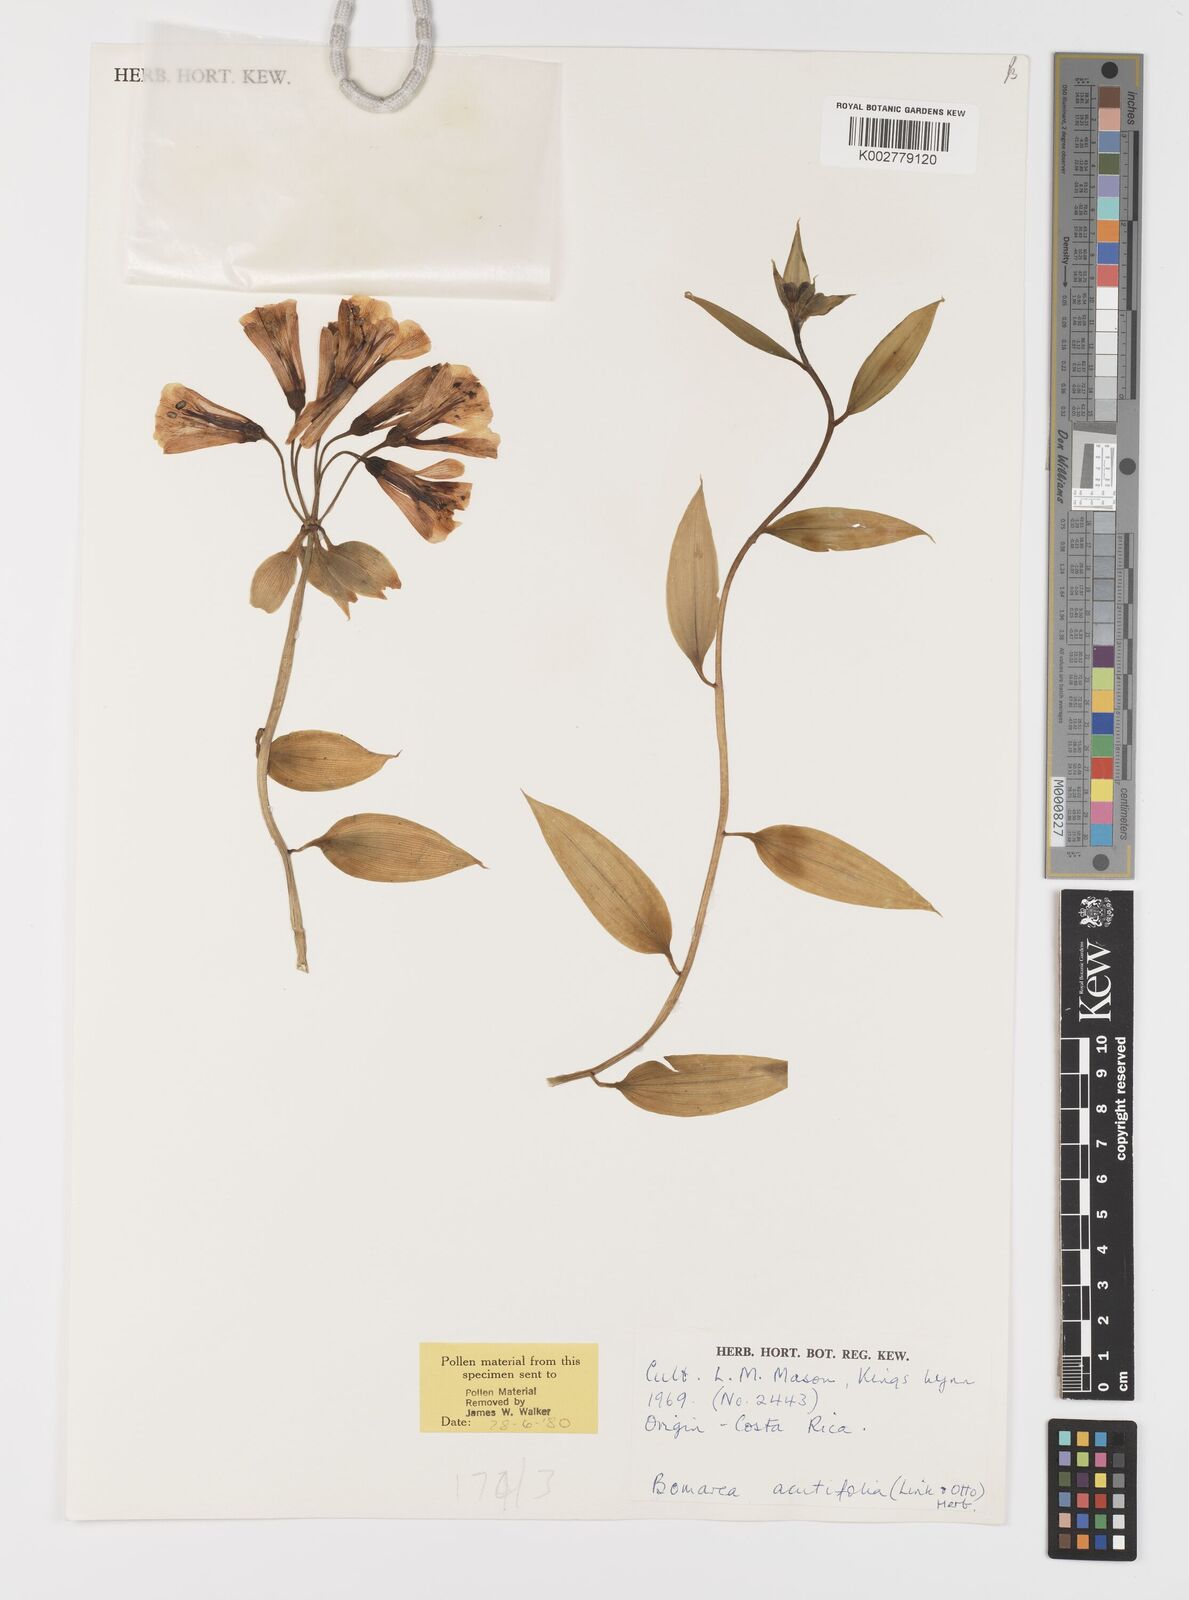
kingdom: Plantae
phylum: Tracheophyta
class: Liliopsida
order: Liliales
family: Alstroemeriaceae
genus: Bomarea
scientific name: Bomarea acutifolia
